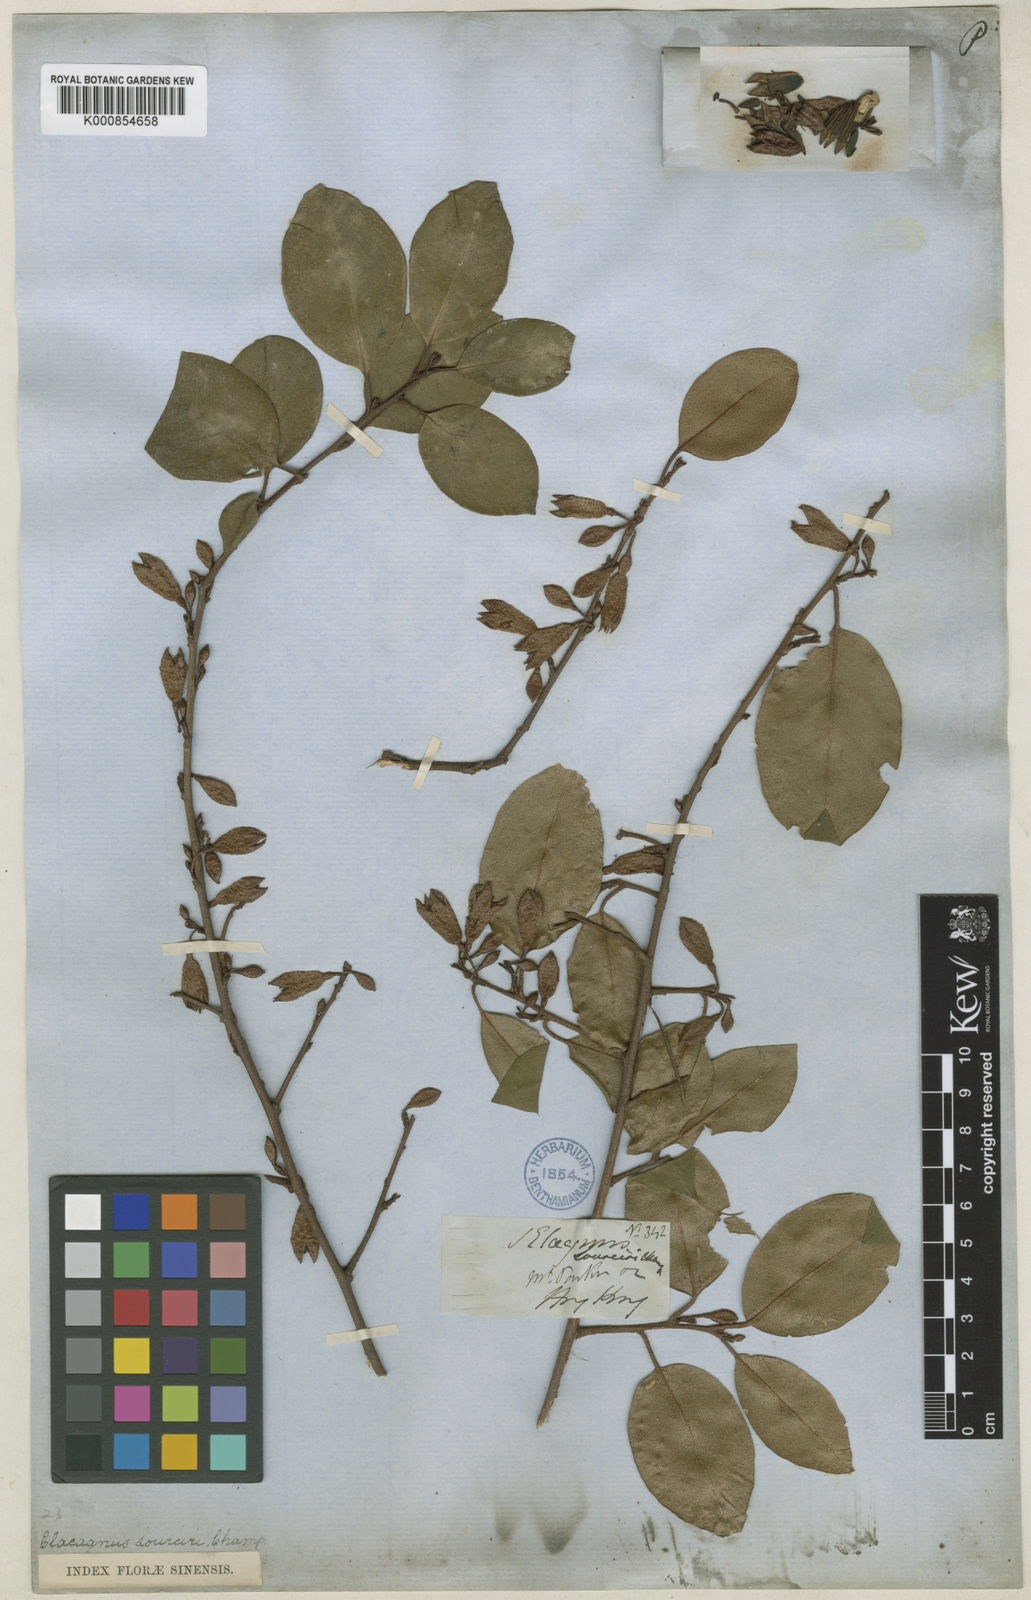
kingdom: Plantae
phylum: Tracheophyta
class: Magnoliopsida
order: Rosales
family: Elaeagnaceae
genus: Elaeagnus
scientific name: Elaeagnus loureiroi
